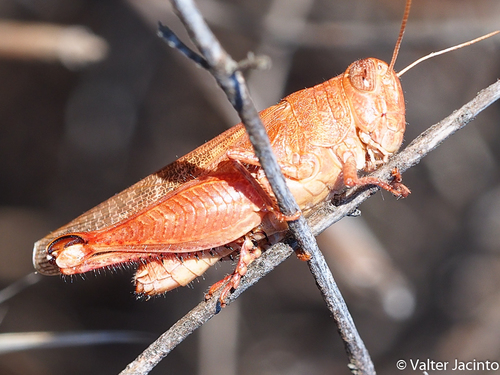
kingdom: Animalia
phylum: Arthropoda
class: Insecta
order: Orthoptera
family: Acrididae
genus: Calliptamus
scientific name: Calliptamus barbarus
